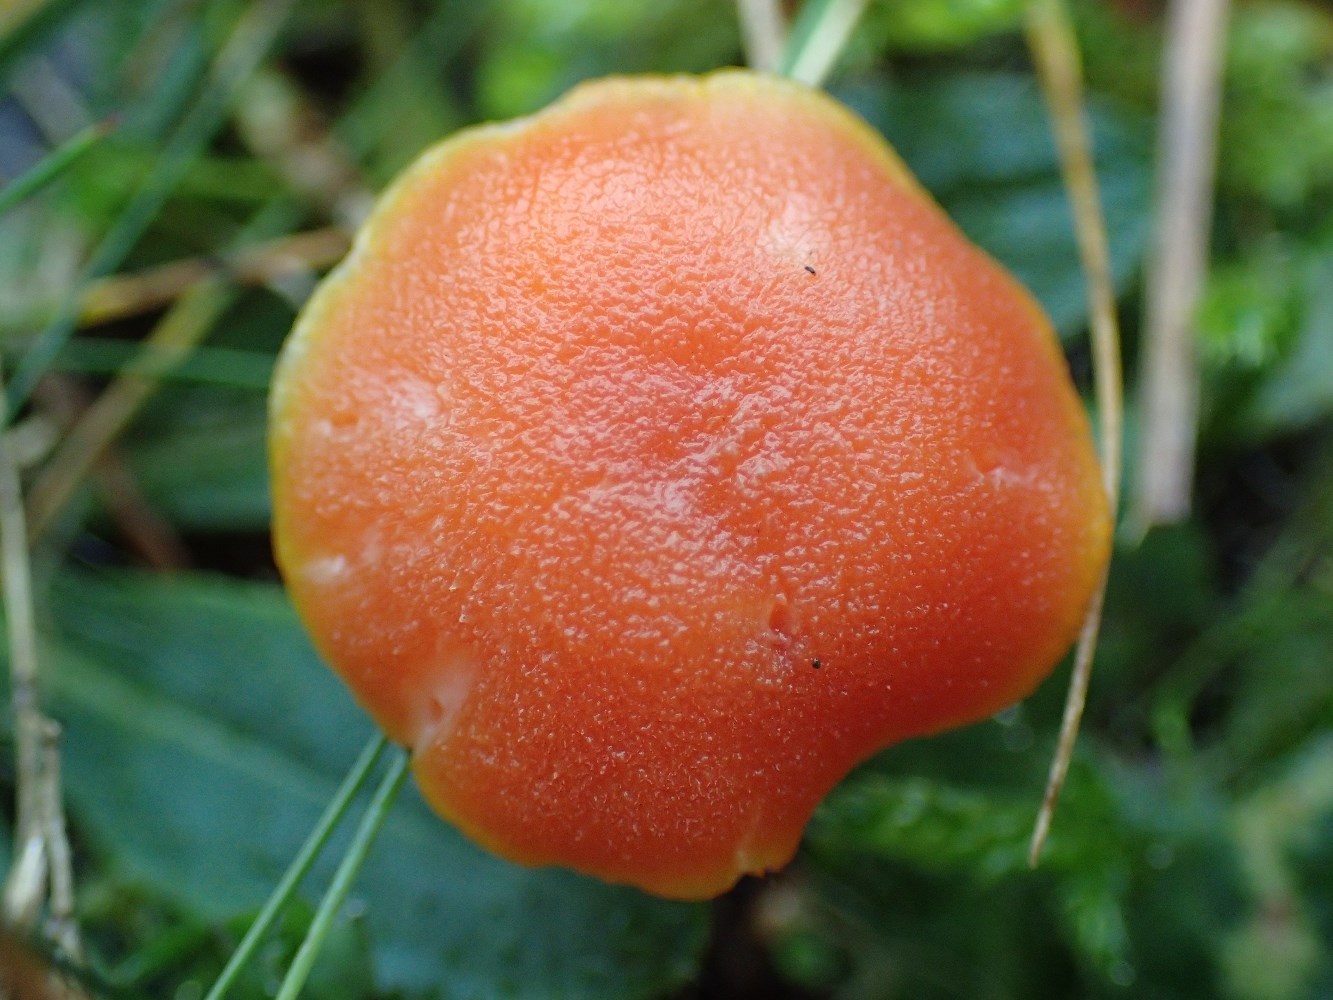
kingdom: Fungi
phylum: Basidiomycota
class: Agaricomycetes
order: Agaricales
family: Hygrophoraceae
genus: Hygrocybe
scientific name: Hygrocybe miniata
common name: mønje-vokshat
